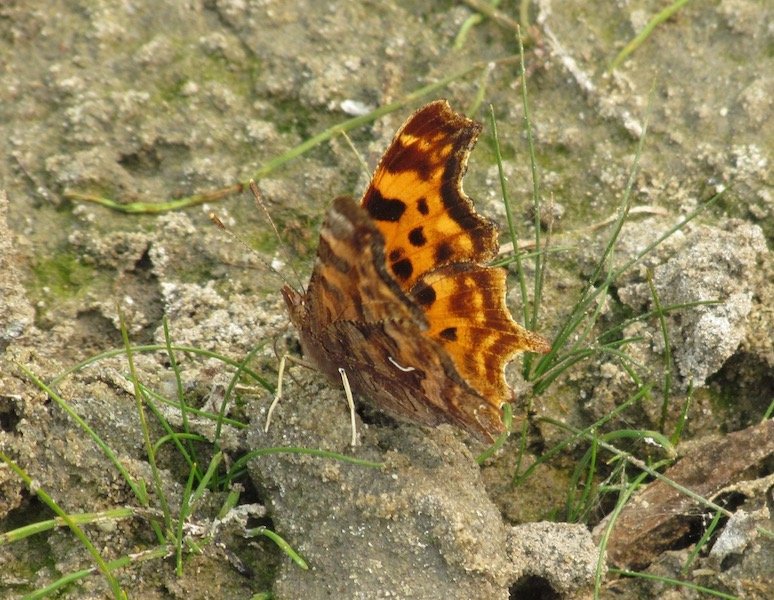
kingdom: Animalia
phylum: Arthropoda
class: Insecta
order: Lepidoptera
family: Nymphalidae
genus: Polygonia
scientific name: Polygonia satyrus
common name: Satyr Comma
